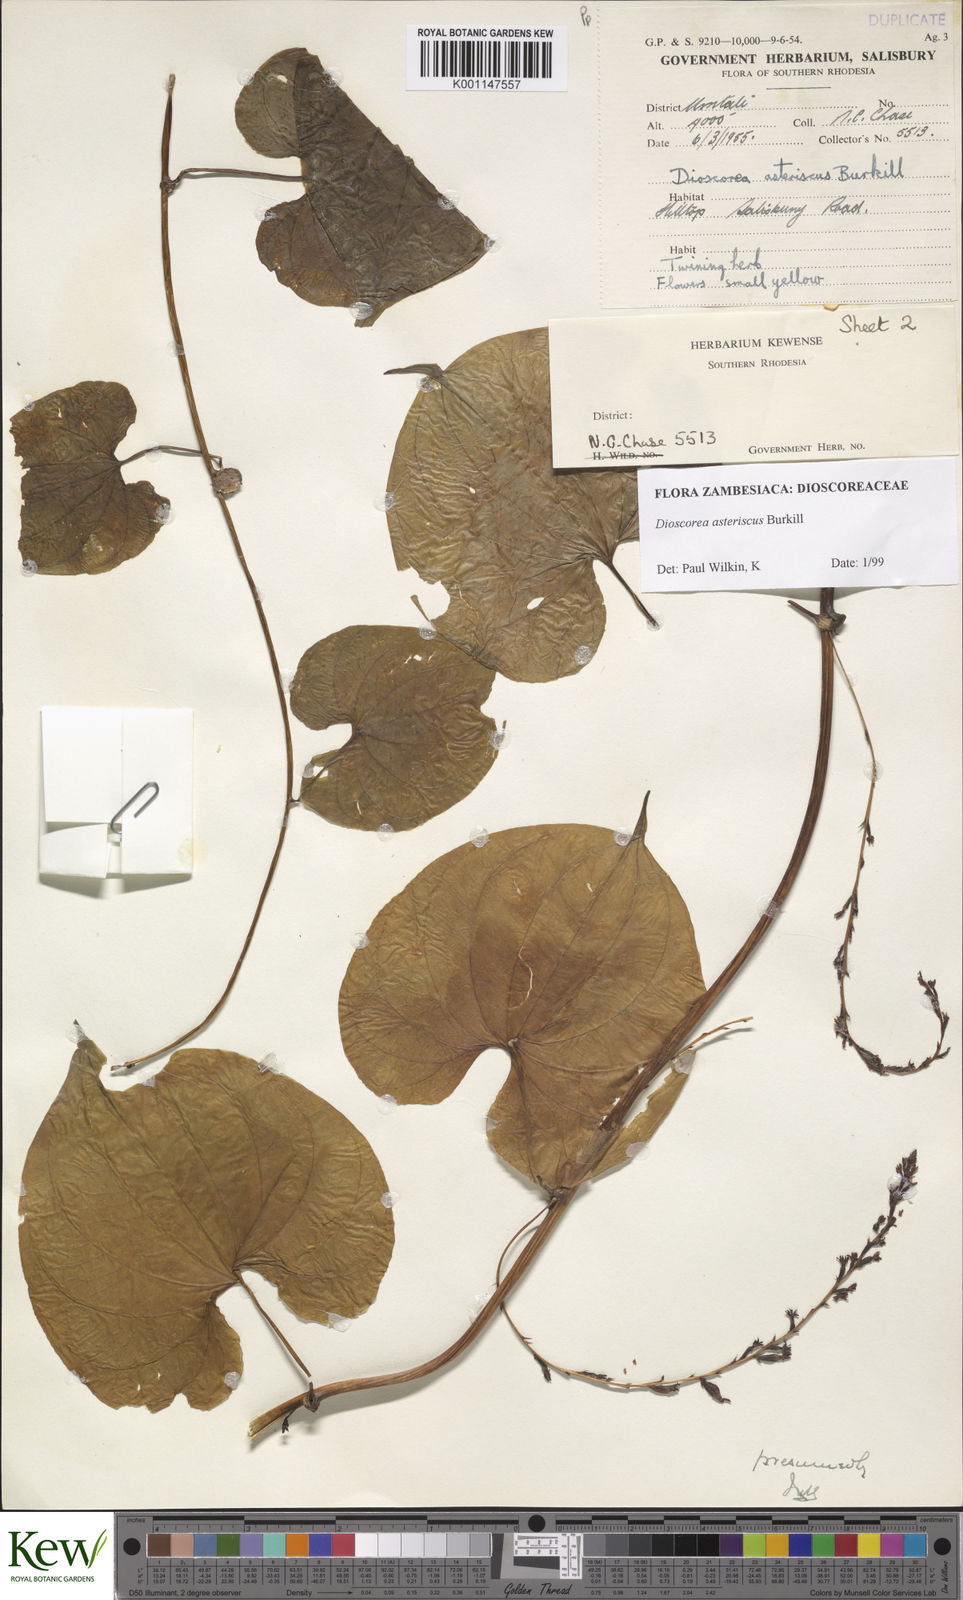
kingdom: Plantae
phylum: Tracheophyta
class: Liliopsida
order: Dioscoreales
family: Dioscoreaceae
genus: Dioscorea
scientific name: Dioscorea asteriscus
